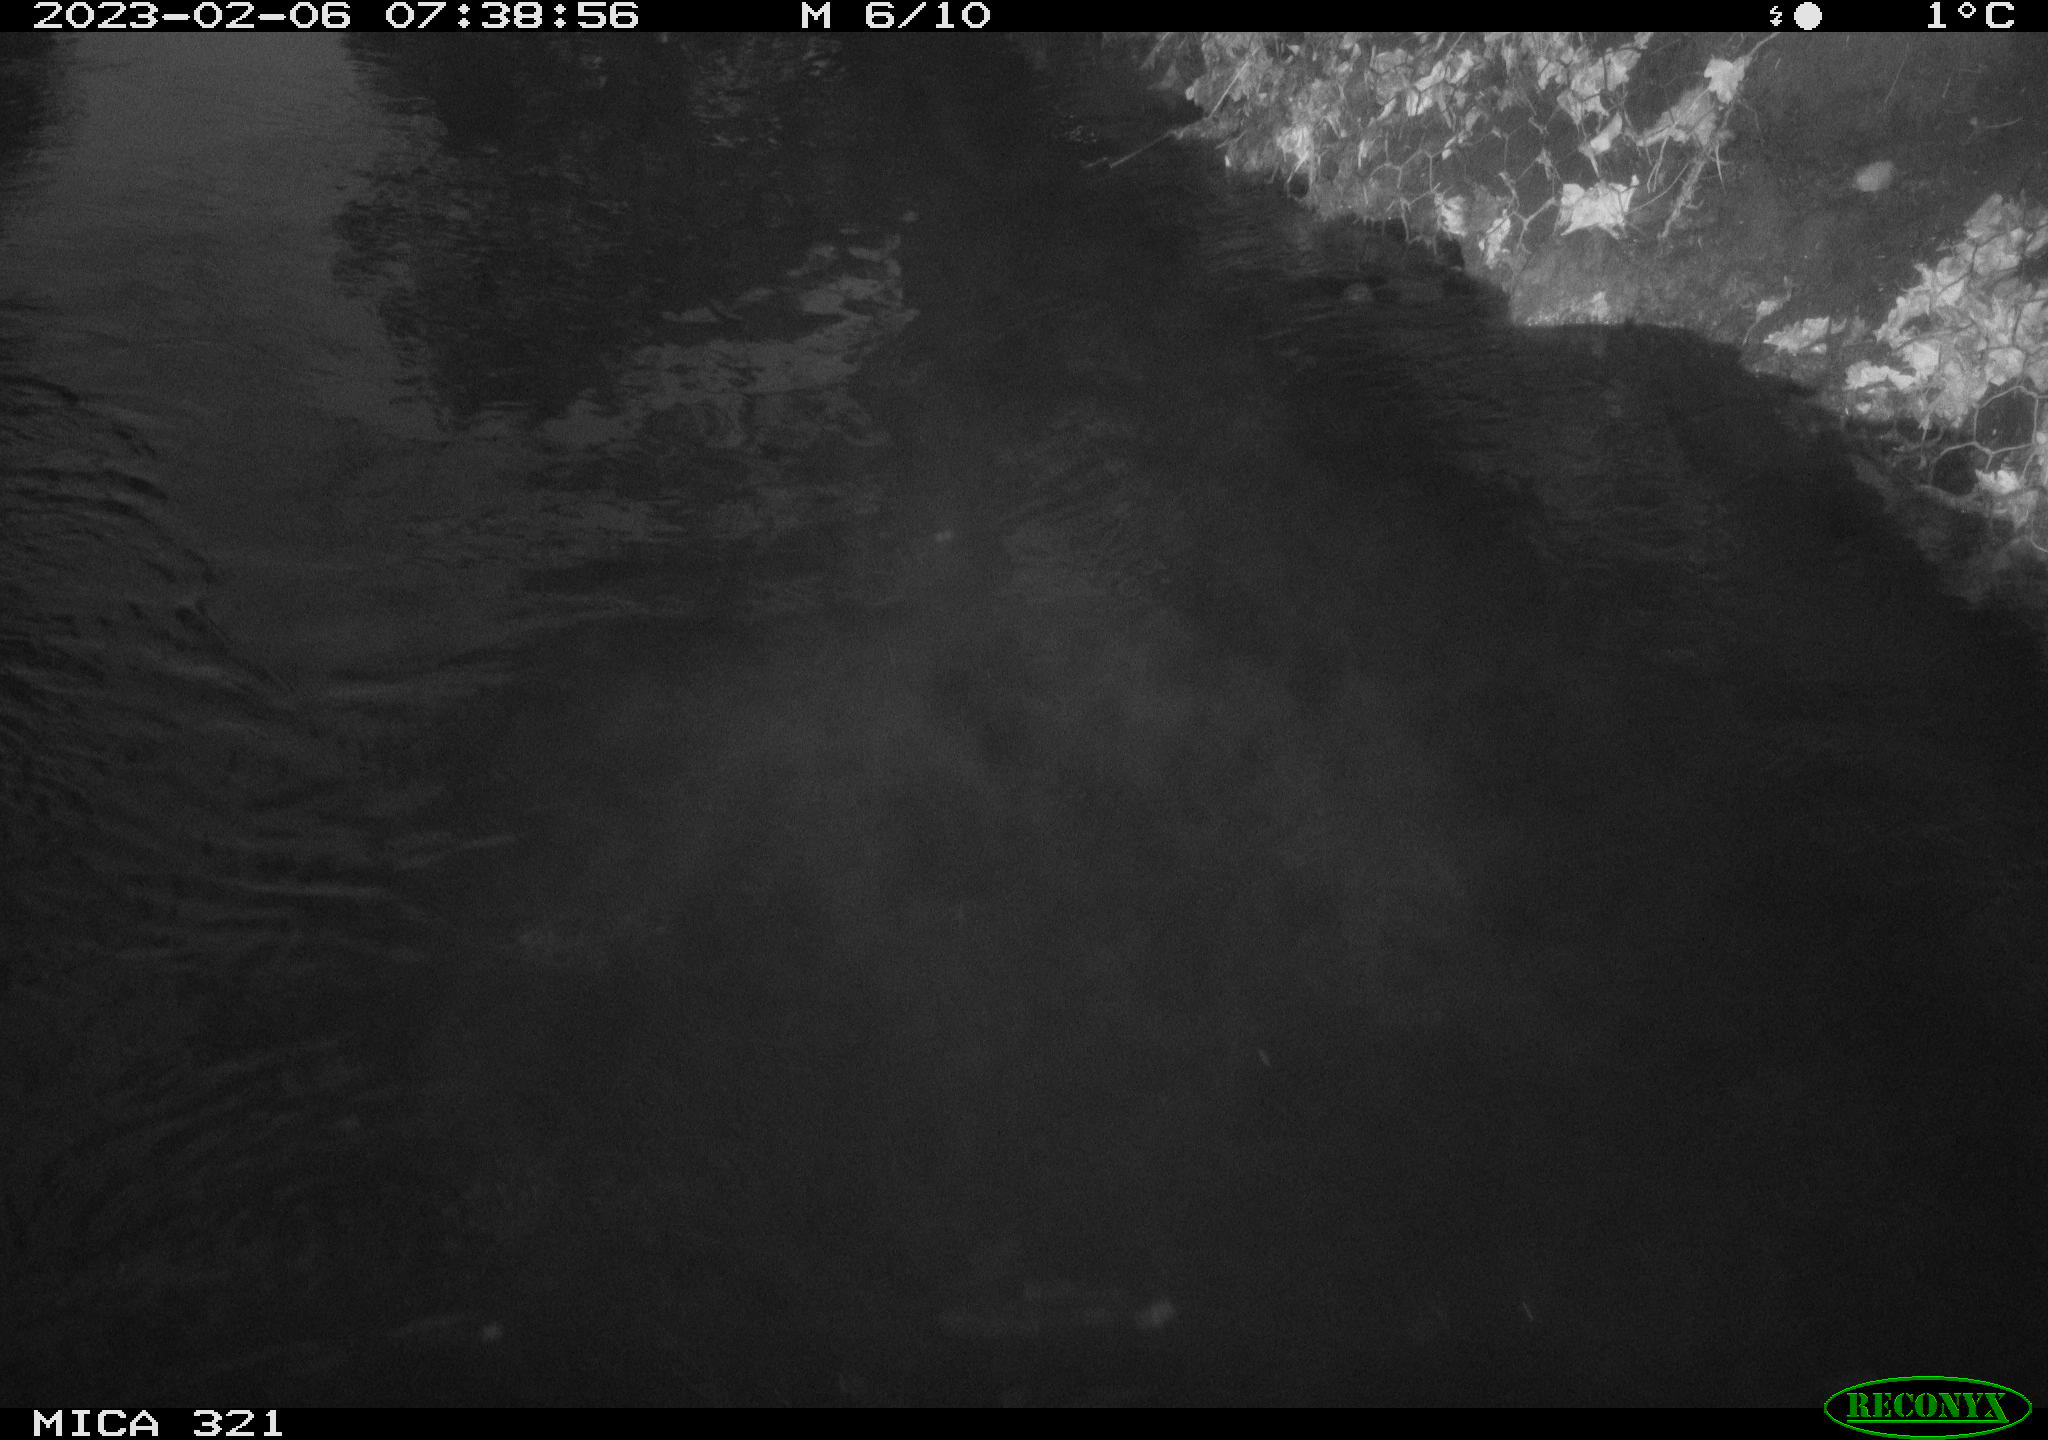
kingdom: Animalia
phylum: Chordata
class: Mammalia
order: Rodentia
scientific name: Rodentia
